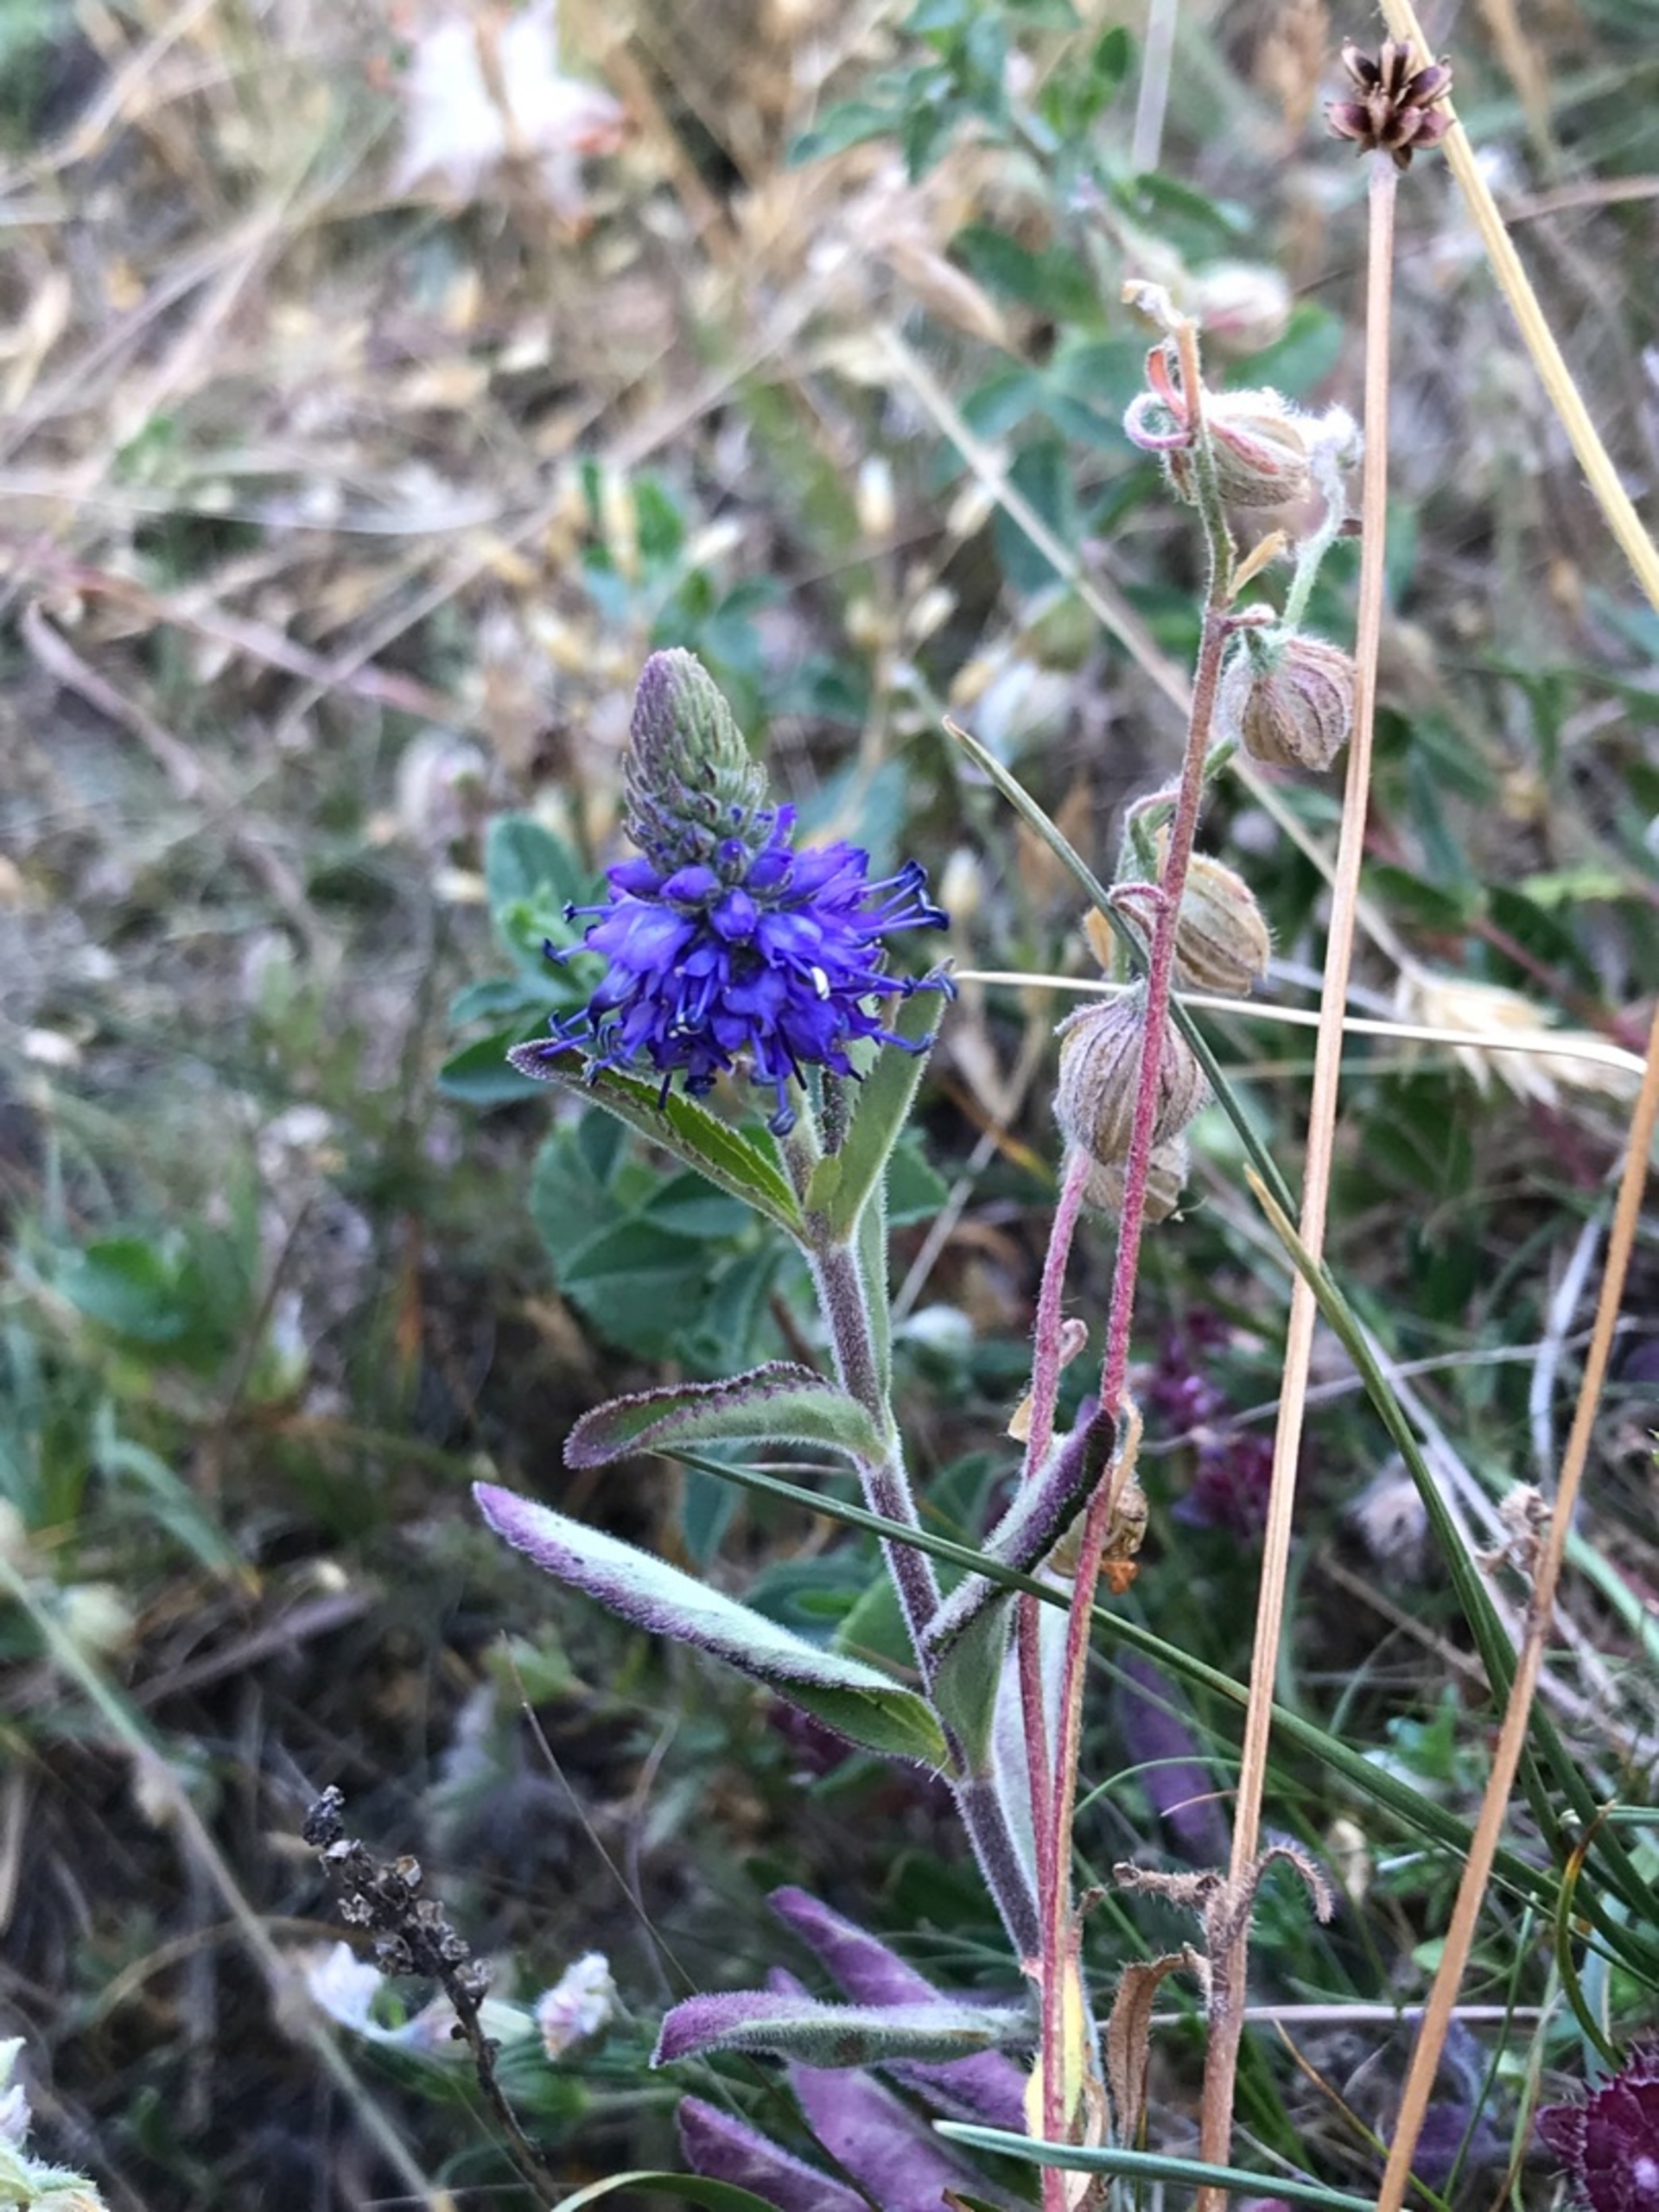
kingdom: Plantae
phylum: Tracheophyta
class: Magnoliopsida
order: Lamiales
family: Plantaginaceae
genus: Veronica
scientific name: Veronica spicata
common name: Aks-ærenpris
